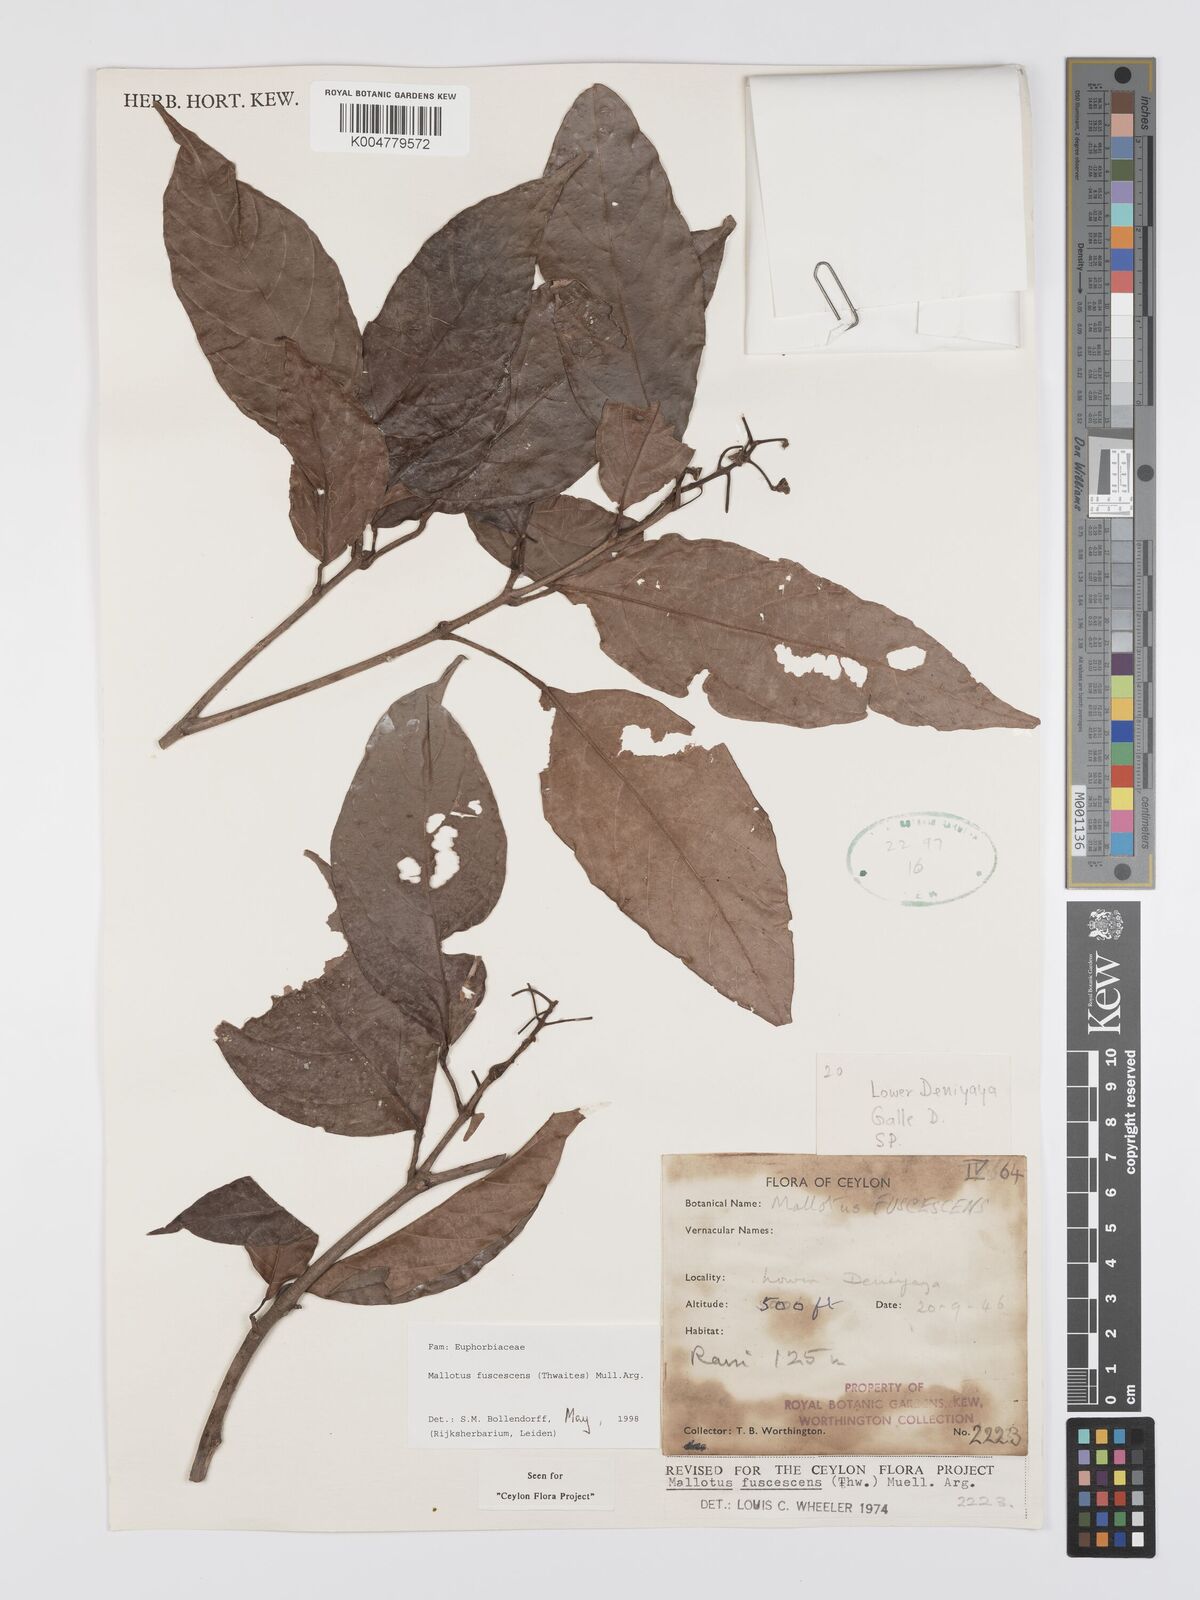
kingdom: Plantae
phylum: Tracheophyta
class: Magnoliopsida
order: Malpighiales
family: Euphorbiaceae
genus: Mallotus
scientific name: Mallotus fuscescens
